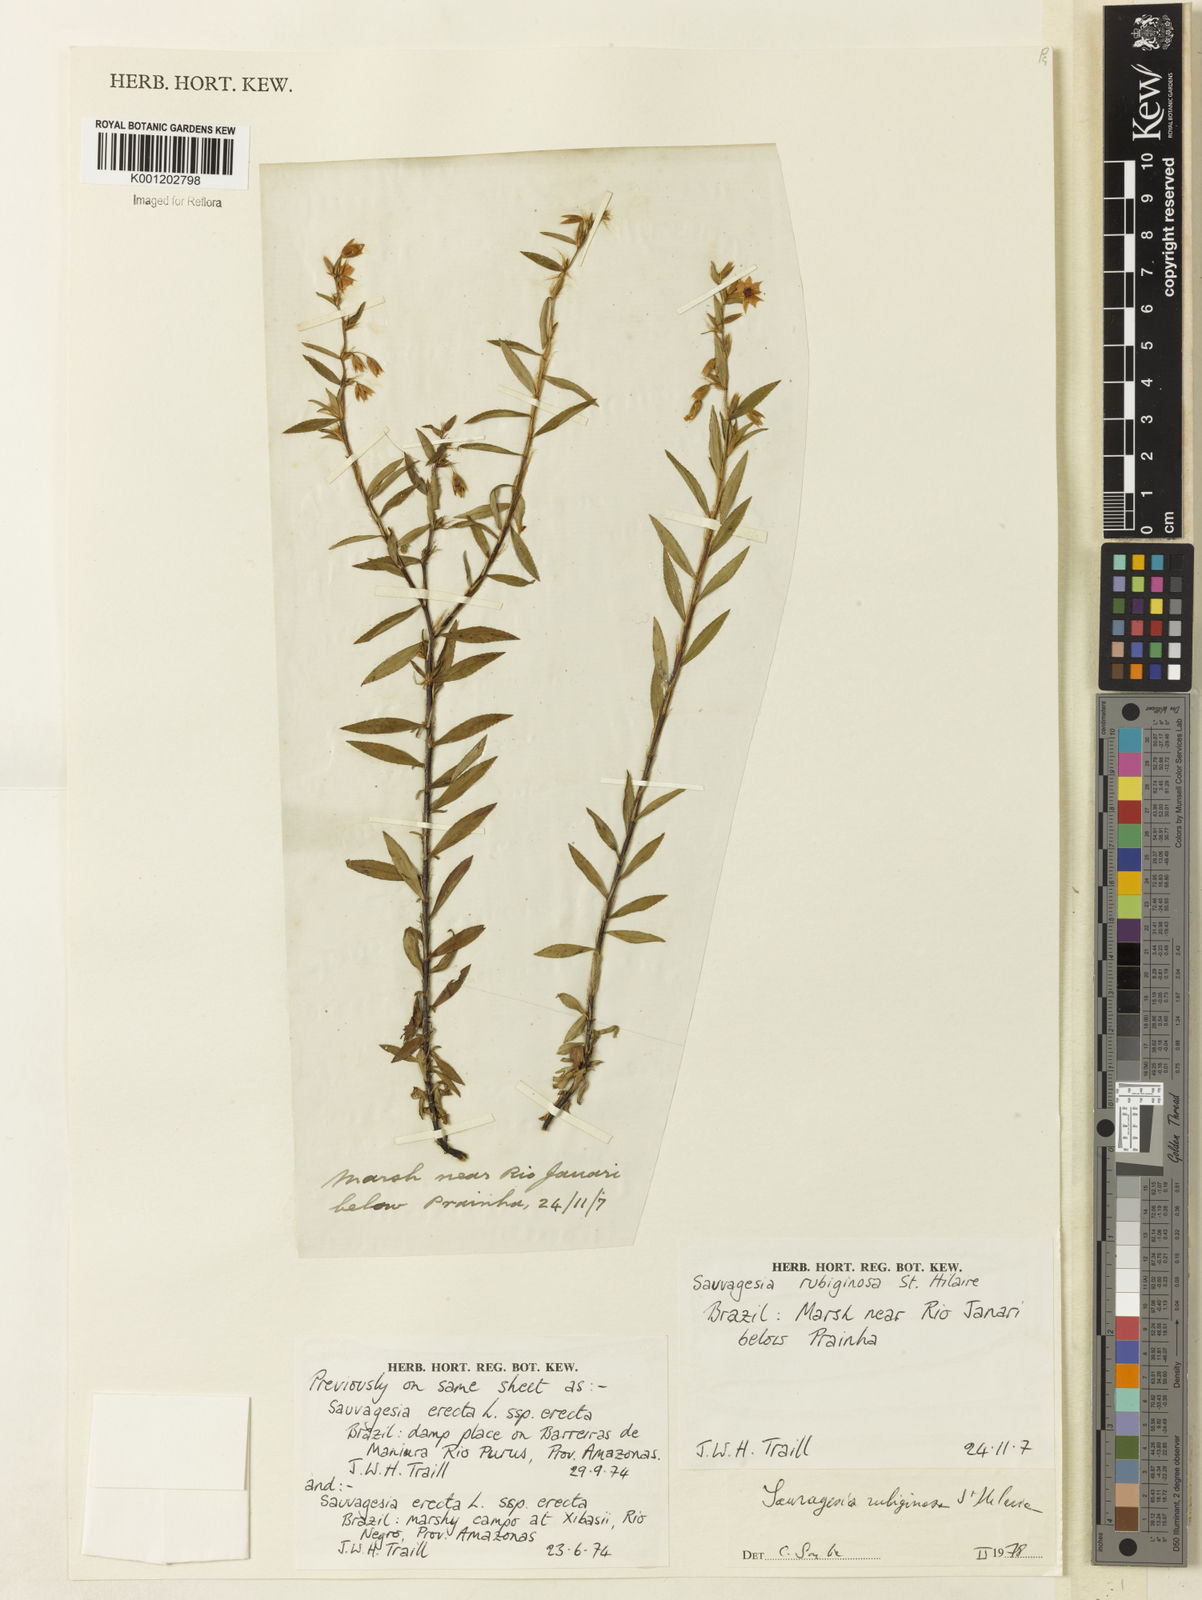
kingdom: Plantae
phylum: Tracheophyta
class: Magnoliopsida
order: Malpighiales
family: Ochnaceae
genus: Sauvagesia
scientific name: Sauvagesia rubiginosa
